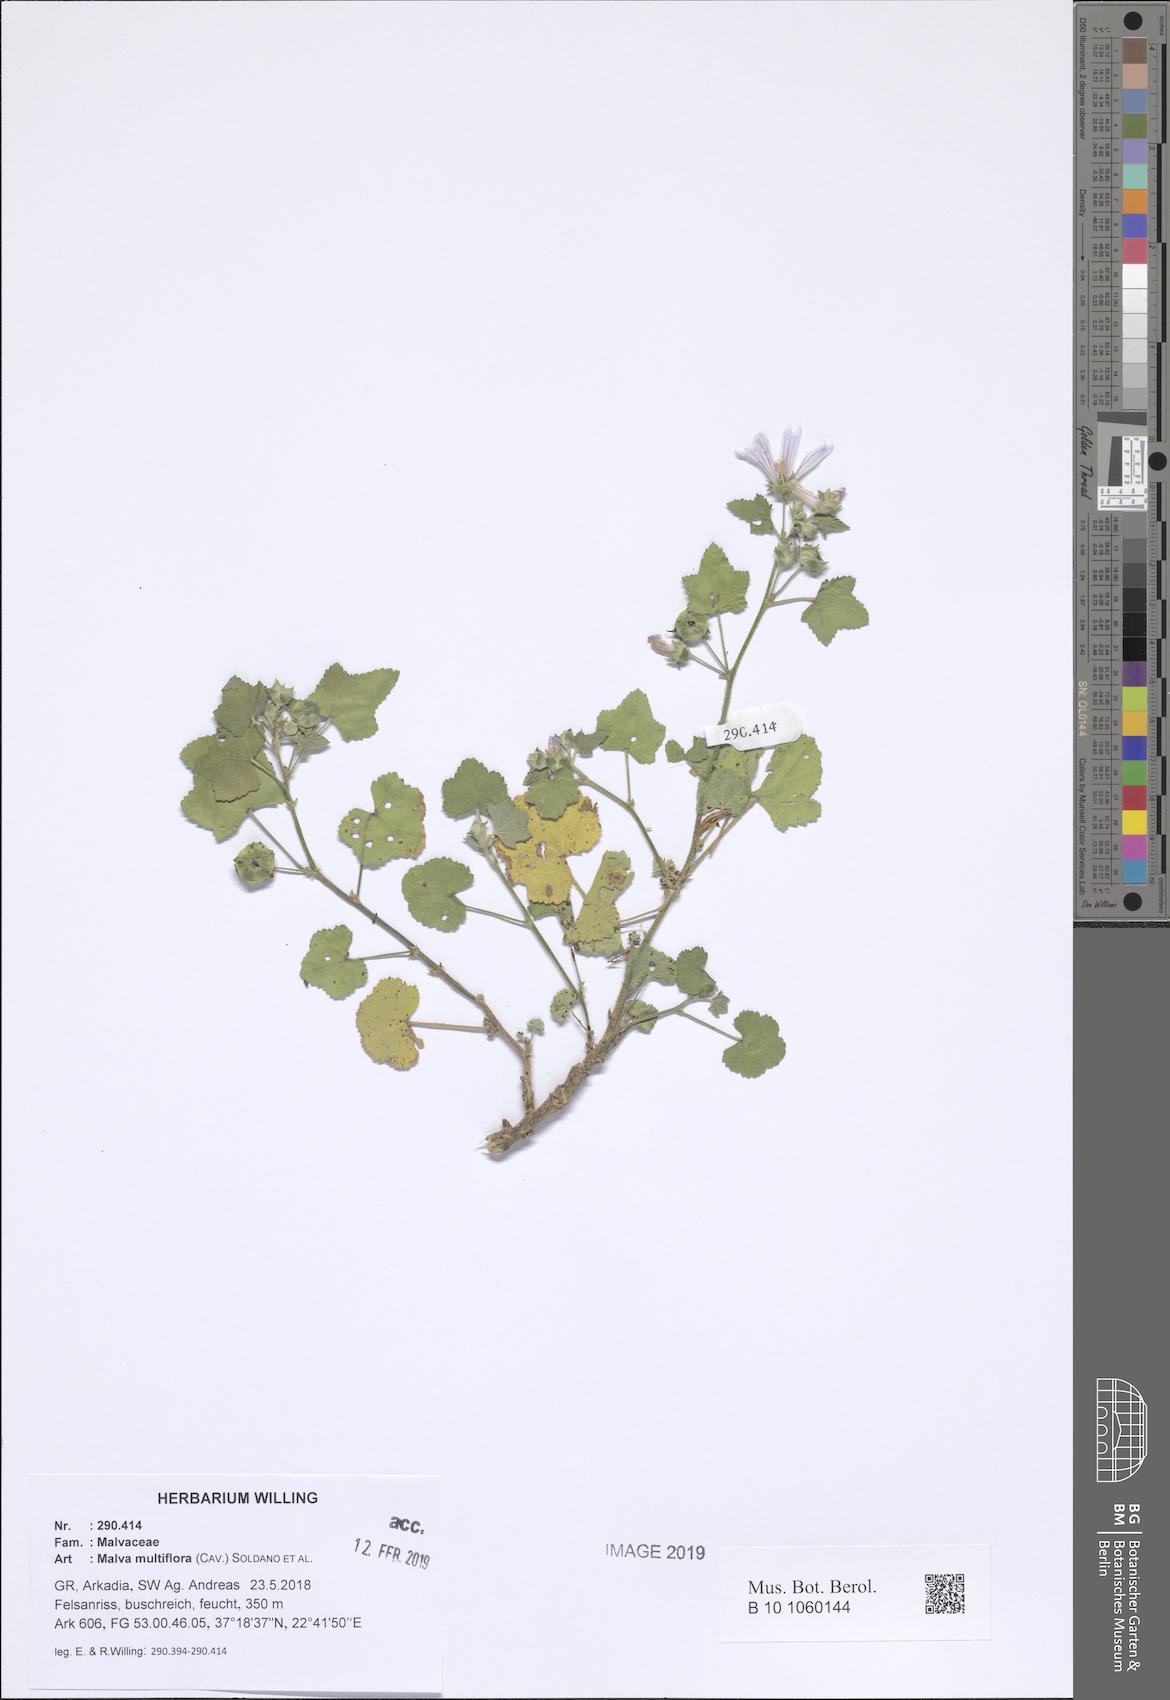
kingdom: Plantae
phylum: Tracheophyta
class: Magnoliopsida
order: Malvales
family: Malvaceae
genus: Malva
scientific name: Malva multiflora
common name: Cheeseweed
